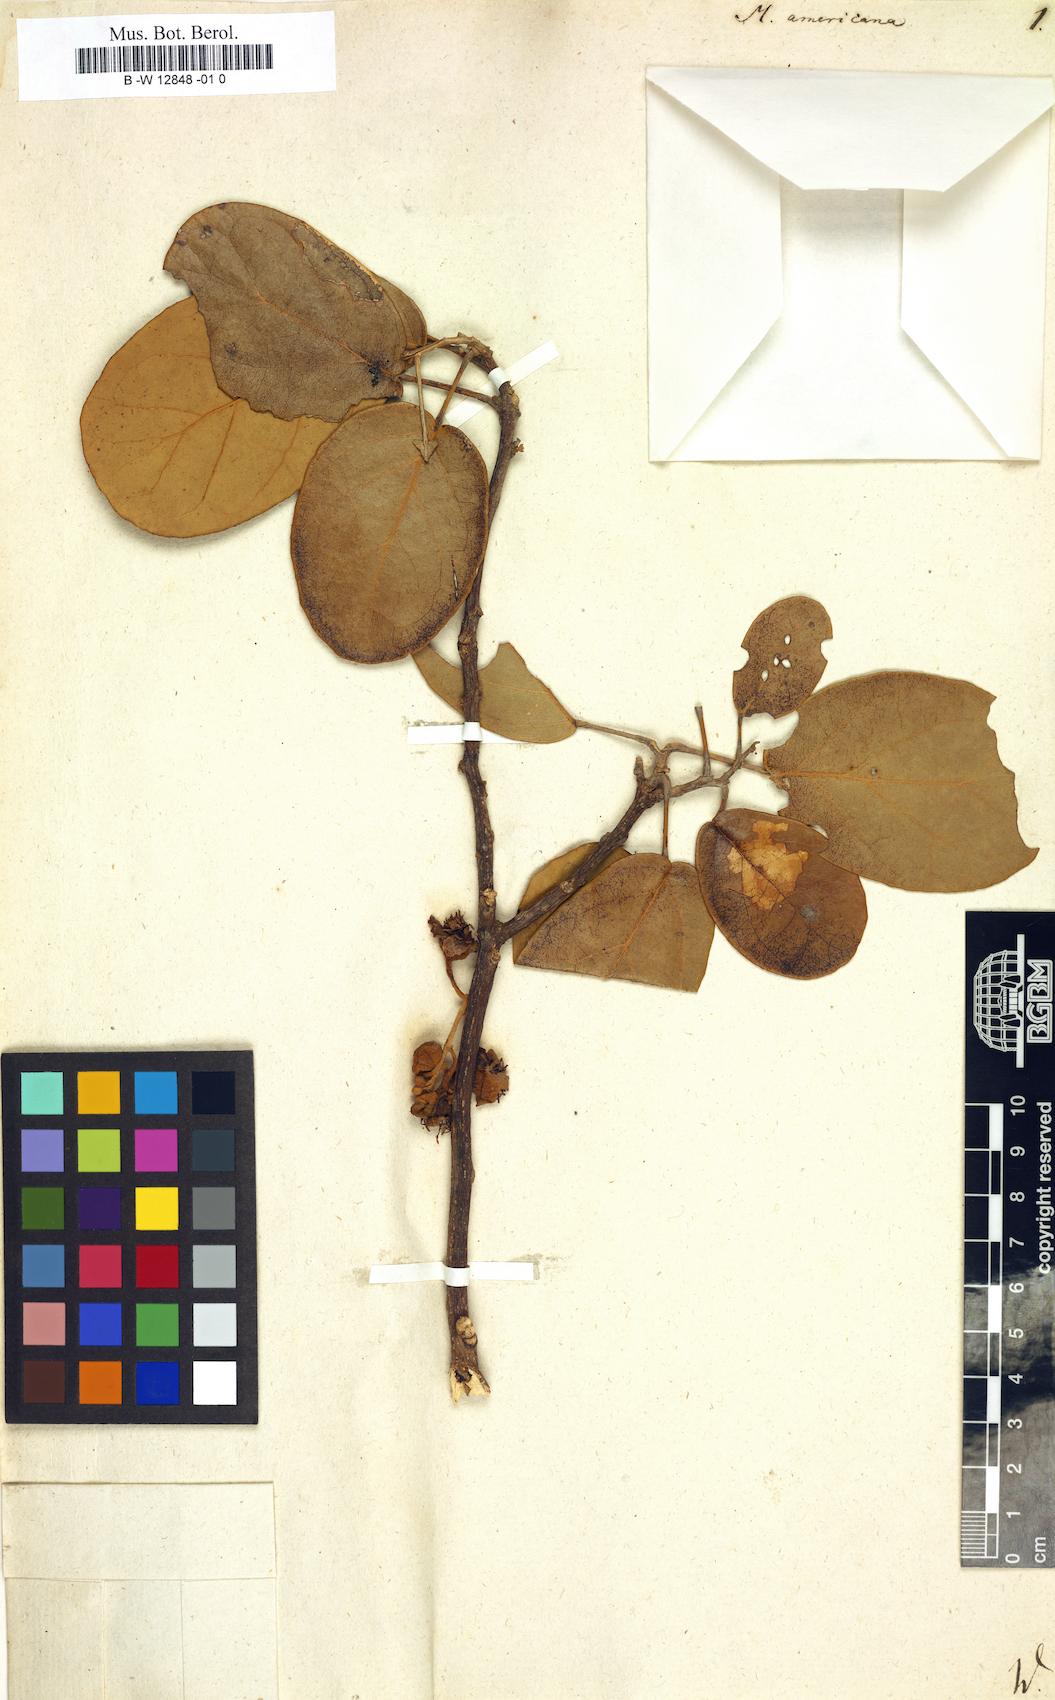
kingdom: Plantae
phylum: Tracheophyta
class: Magnoliopsida
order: Brassicales
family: Capparaceae
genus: Morisonia
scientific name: Morisonia americana
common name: Wild mesple
